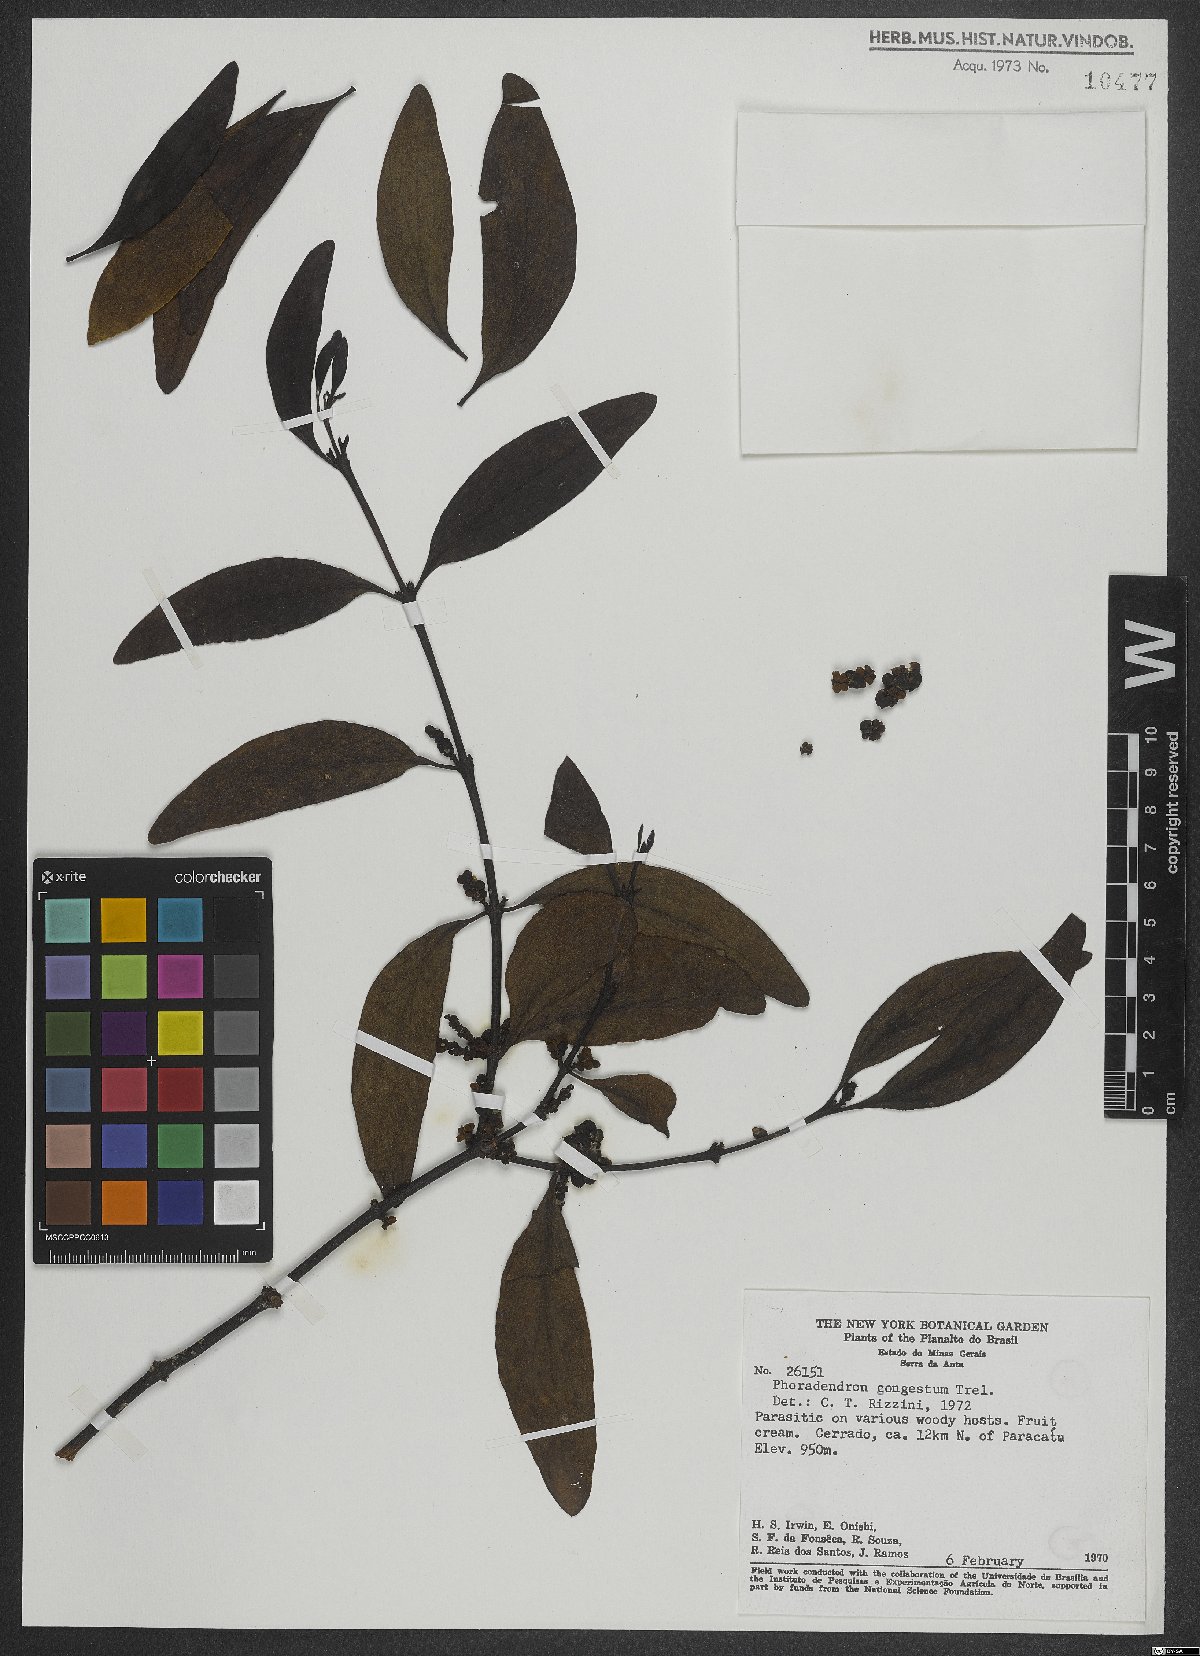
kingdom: Plantae
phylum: Tracheophyta
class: Magnoliopsida
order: Santalales
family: Viscaceae
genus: Phoradendron
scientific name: Phoradendron congestum
